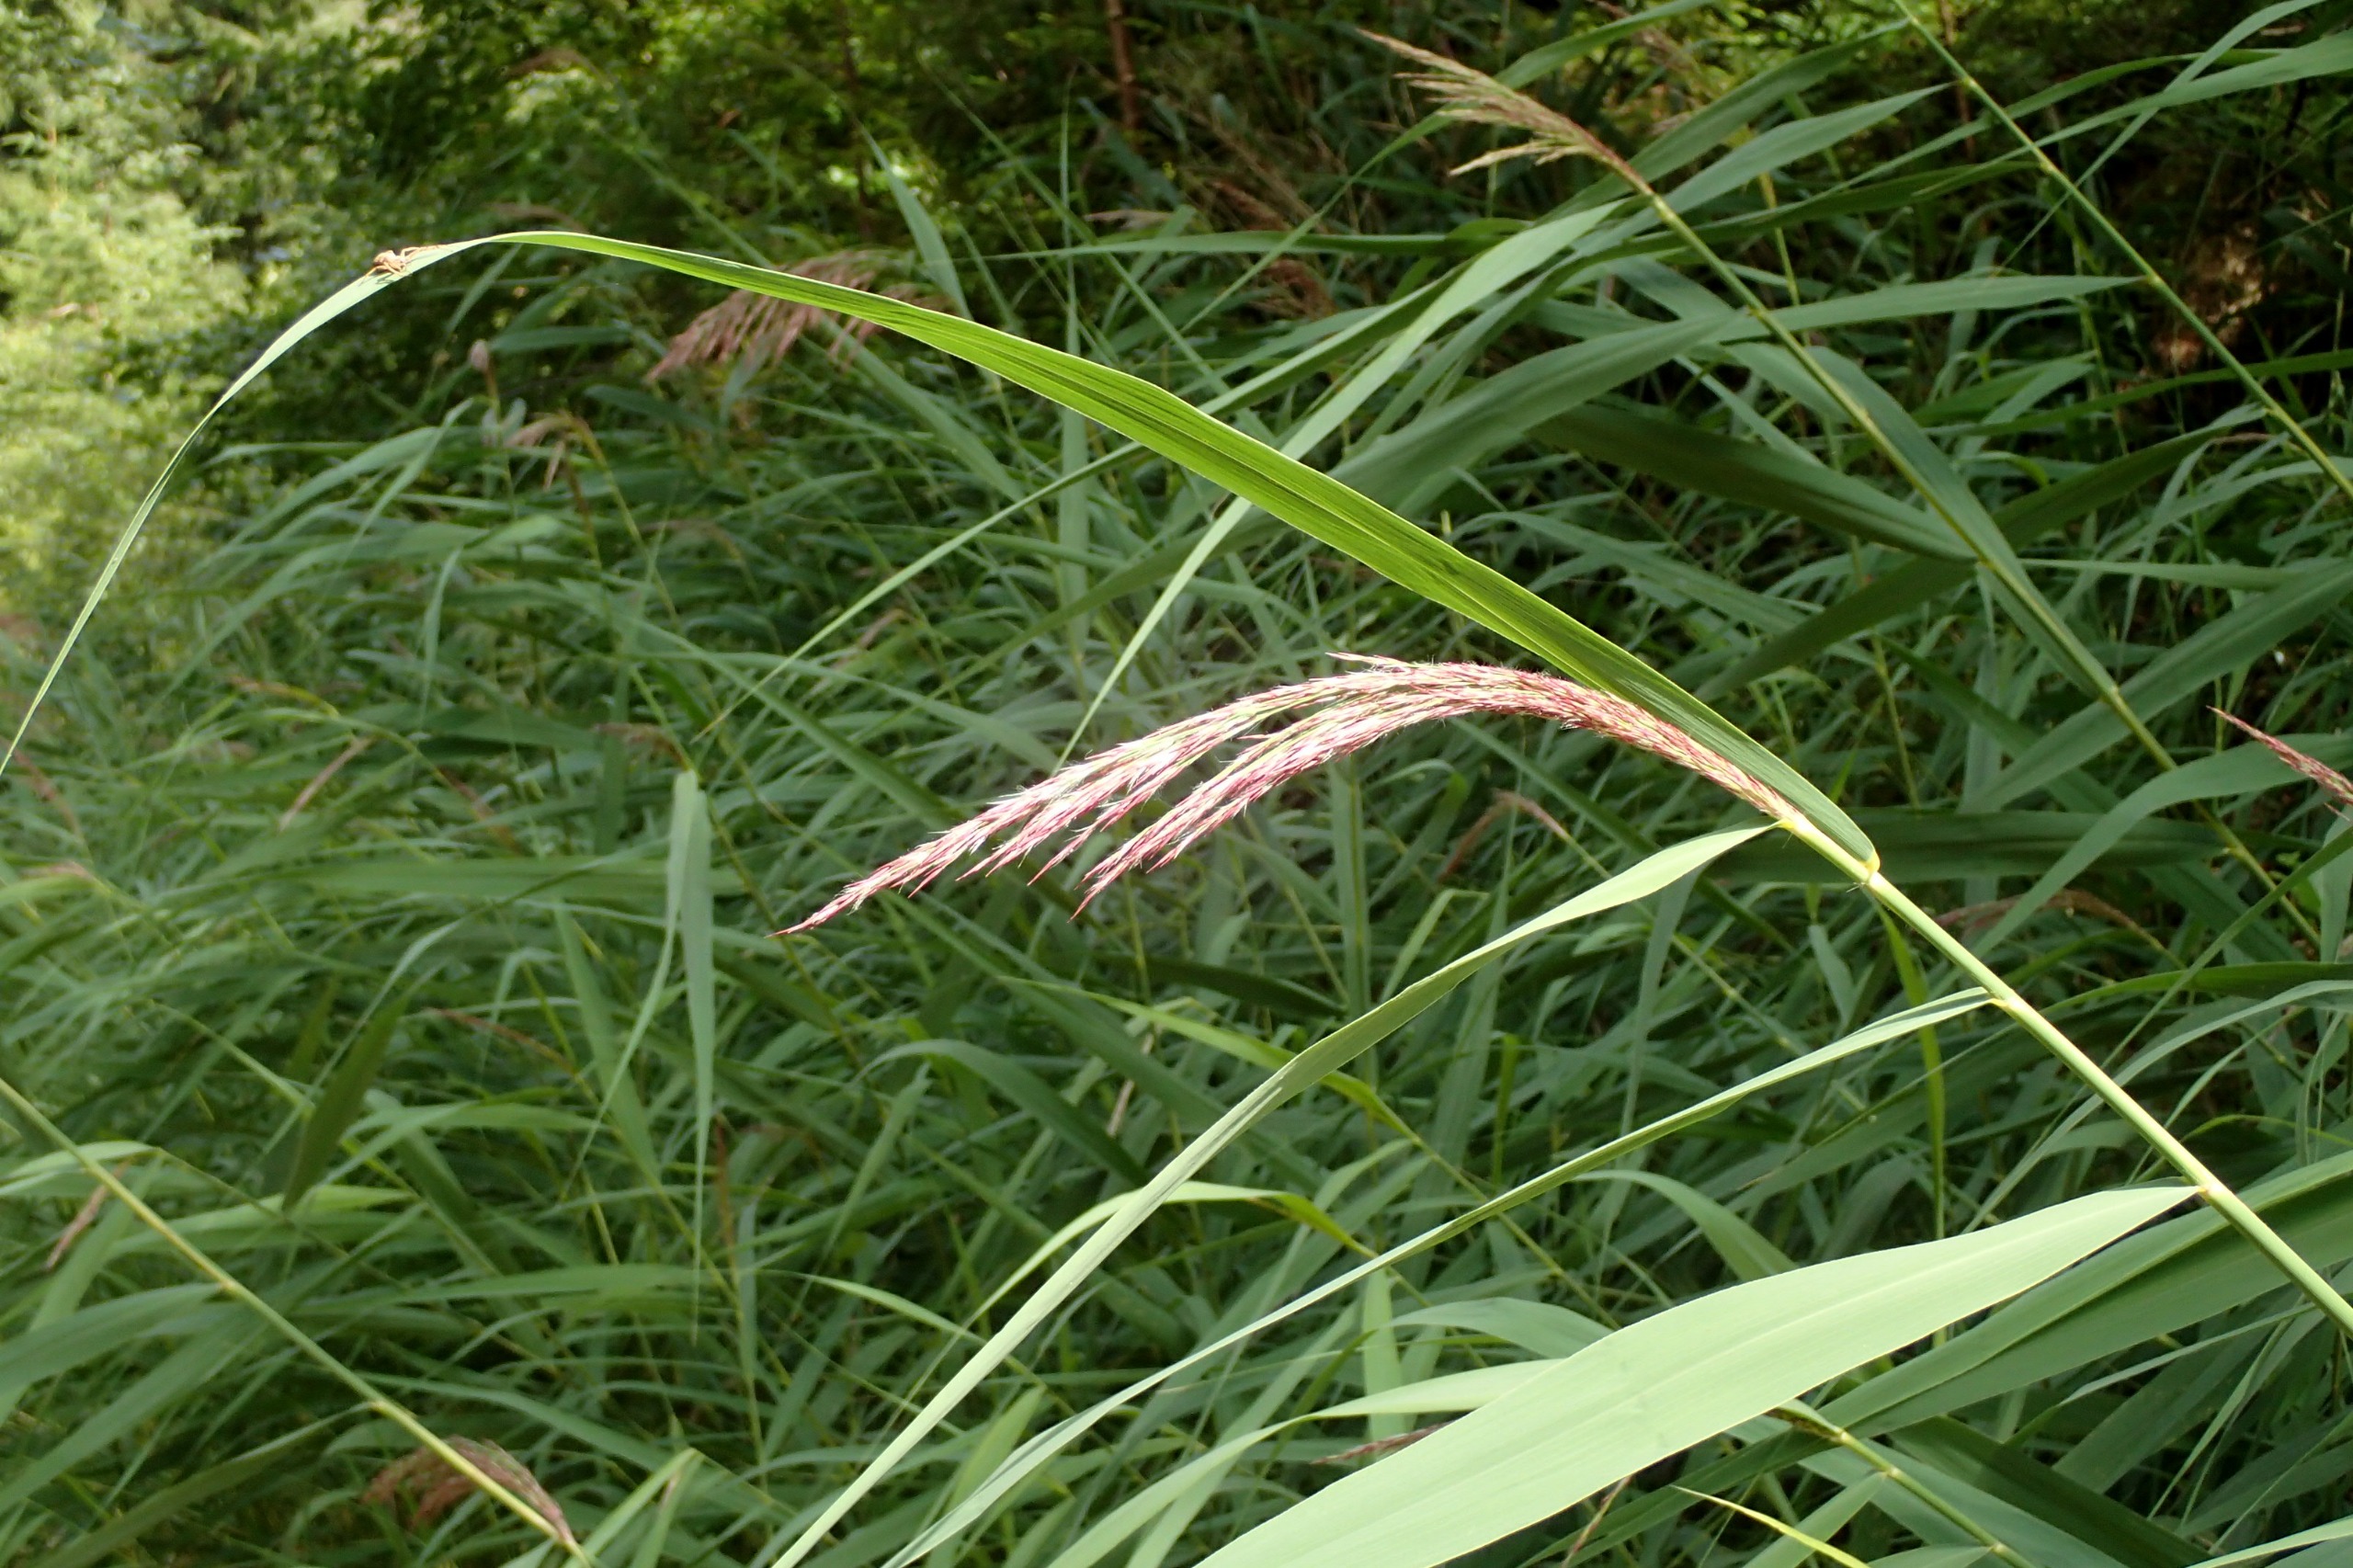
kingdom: Plantae
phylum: Tracheophyta
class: Liliopsida
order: Poales
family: Poaceae
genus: Phragmites
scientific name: Phragmites australis
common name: Tagrør
